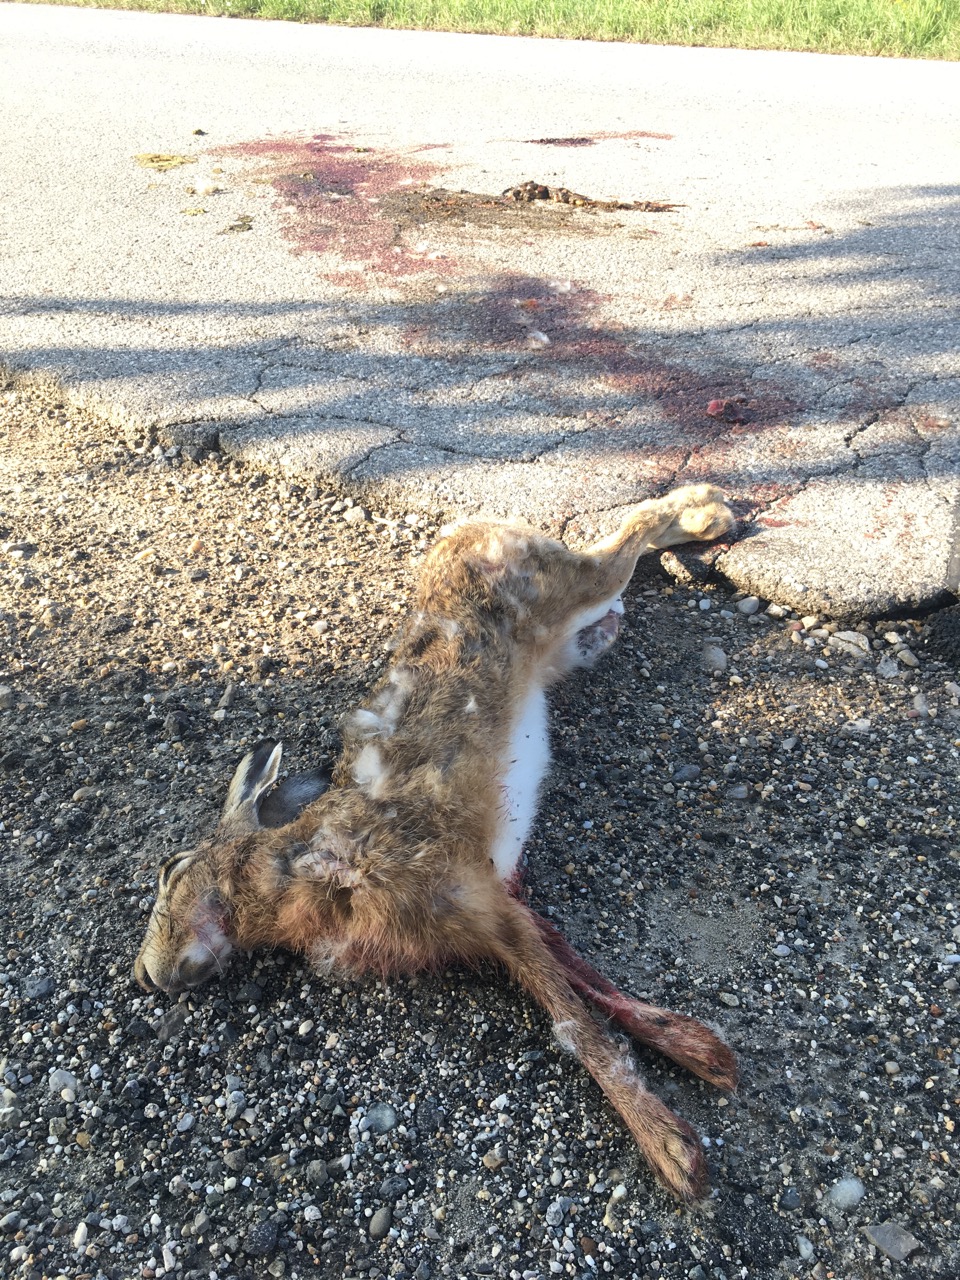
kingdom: Animalia
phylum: Chordata
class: Mammalia
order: Lagomorpha
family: Leporidae
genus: Lepus
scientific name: Lepus europaeus
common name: European hare
